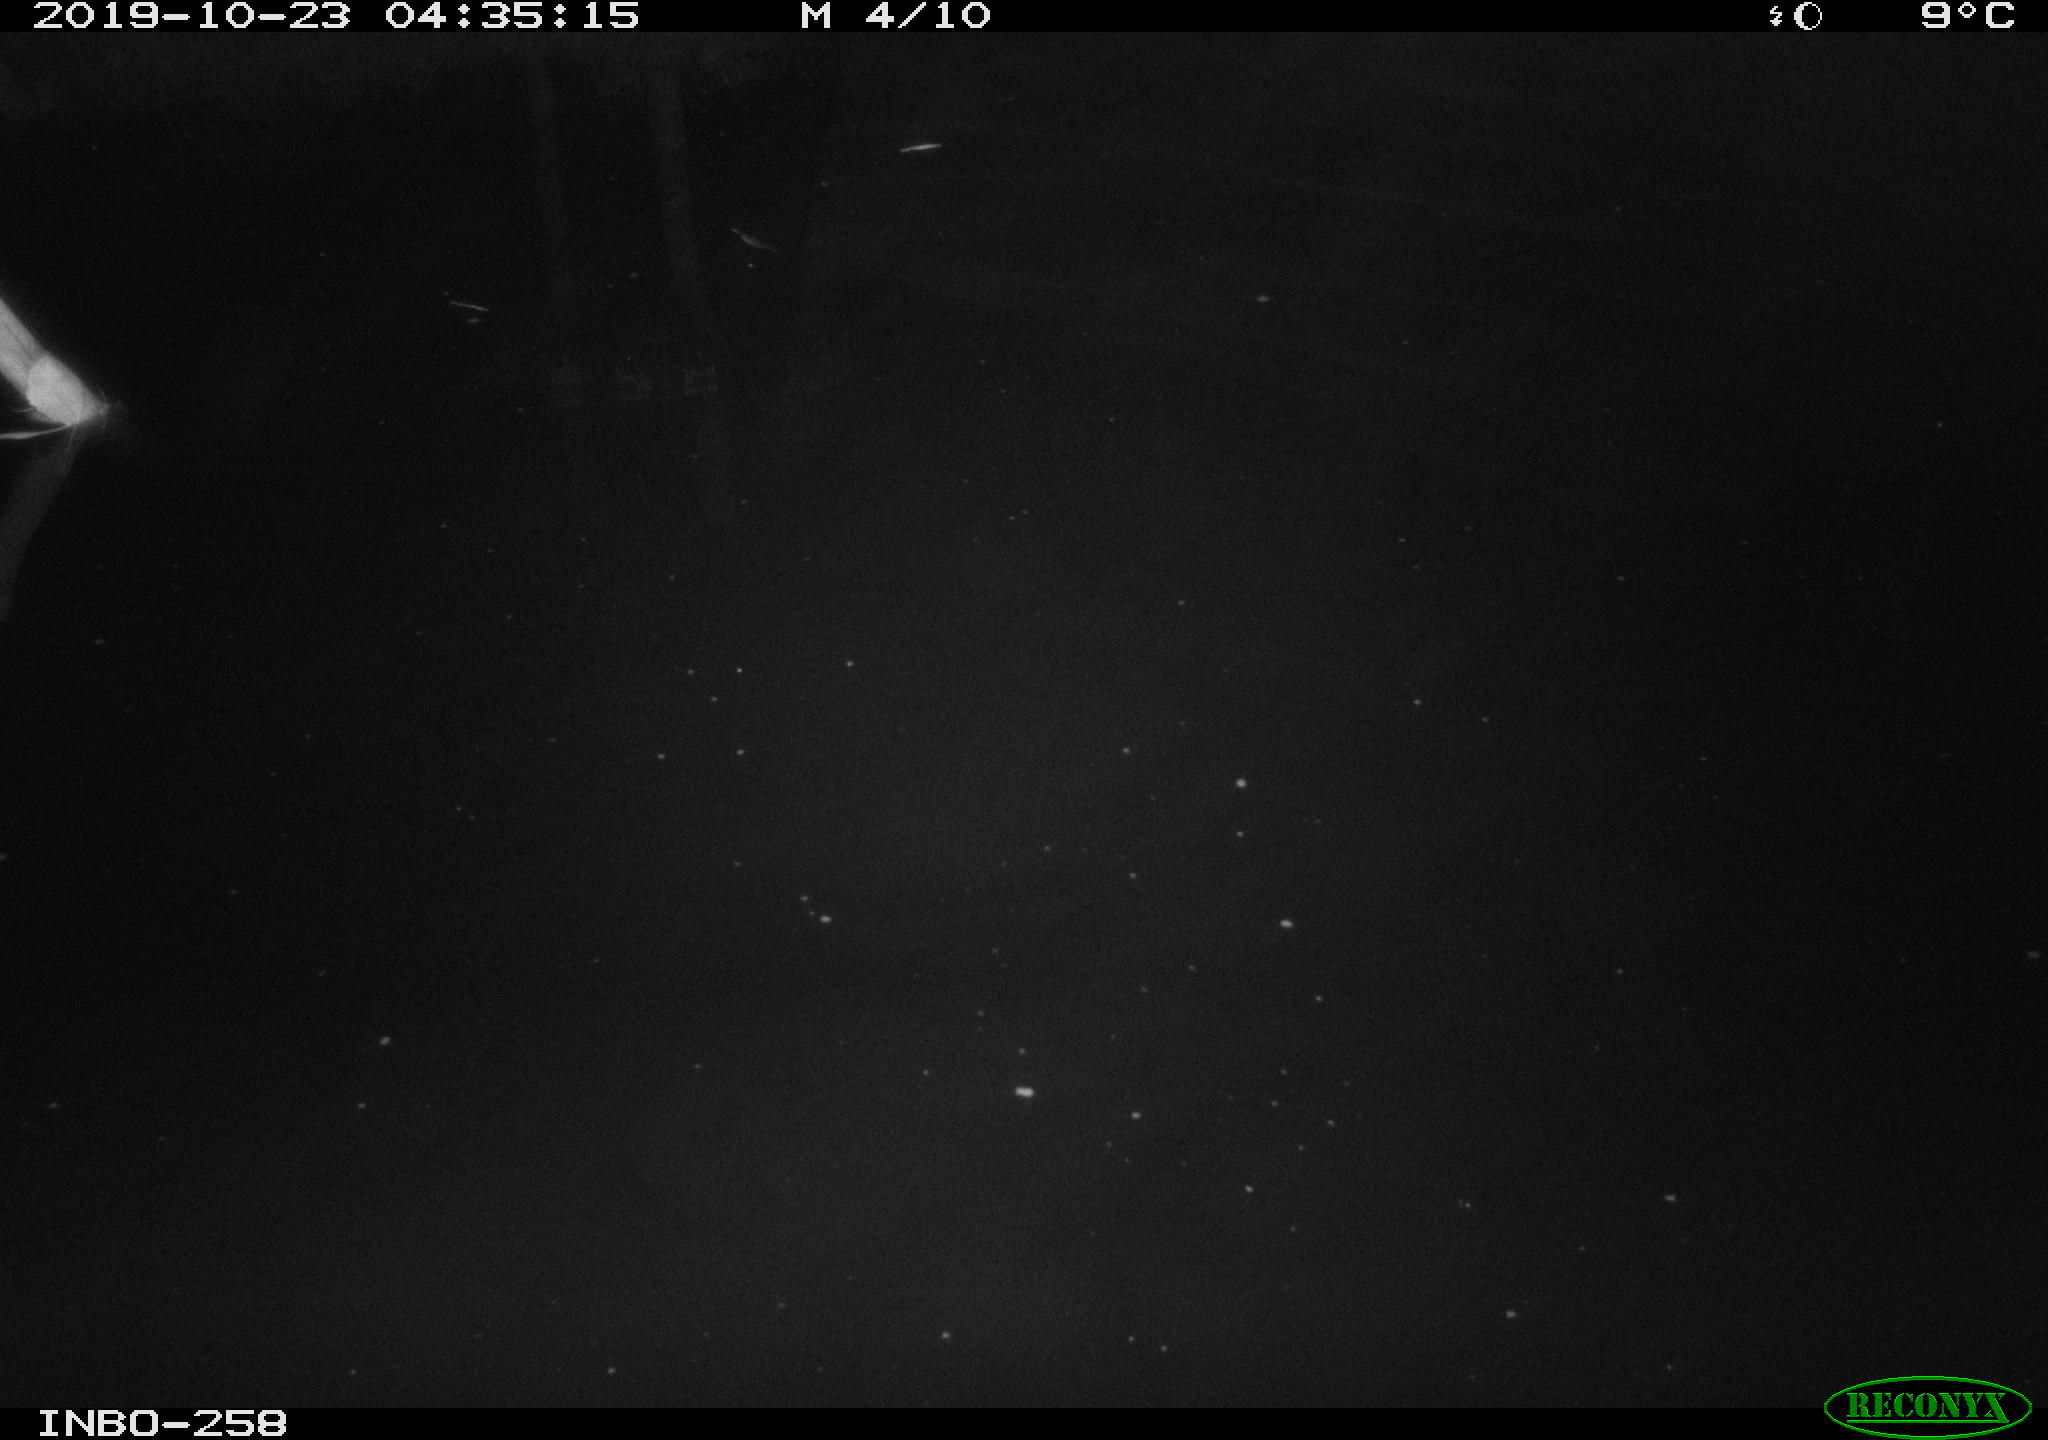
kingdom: Animalia
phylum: Chordata
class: Aves
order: Anseriformes
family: Anatidae
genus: Anas
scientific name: Anas platyrhynchos
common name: Mallard
